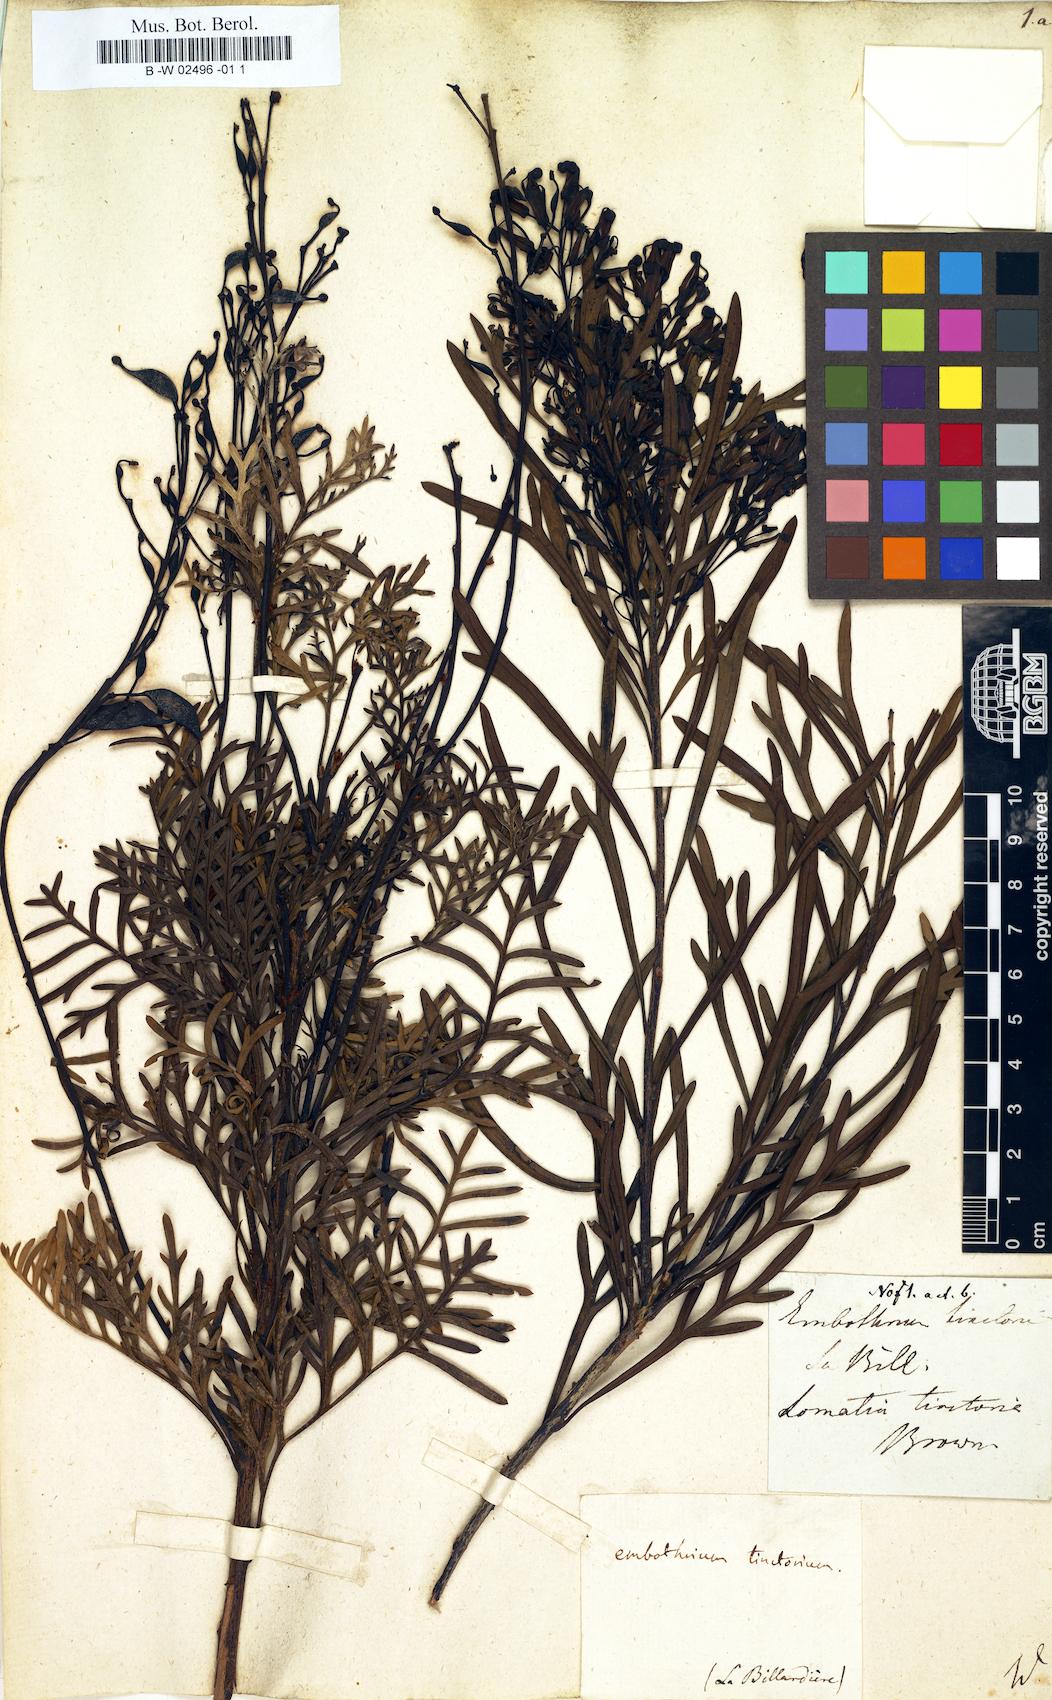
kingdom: Plantae
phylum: Tracheophyta
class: Magnoliopsida
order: Proteales
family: Proteaceae
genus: Lomatia
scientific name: Lomatia tinctoria
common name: Guitar plant
